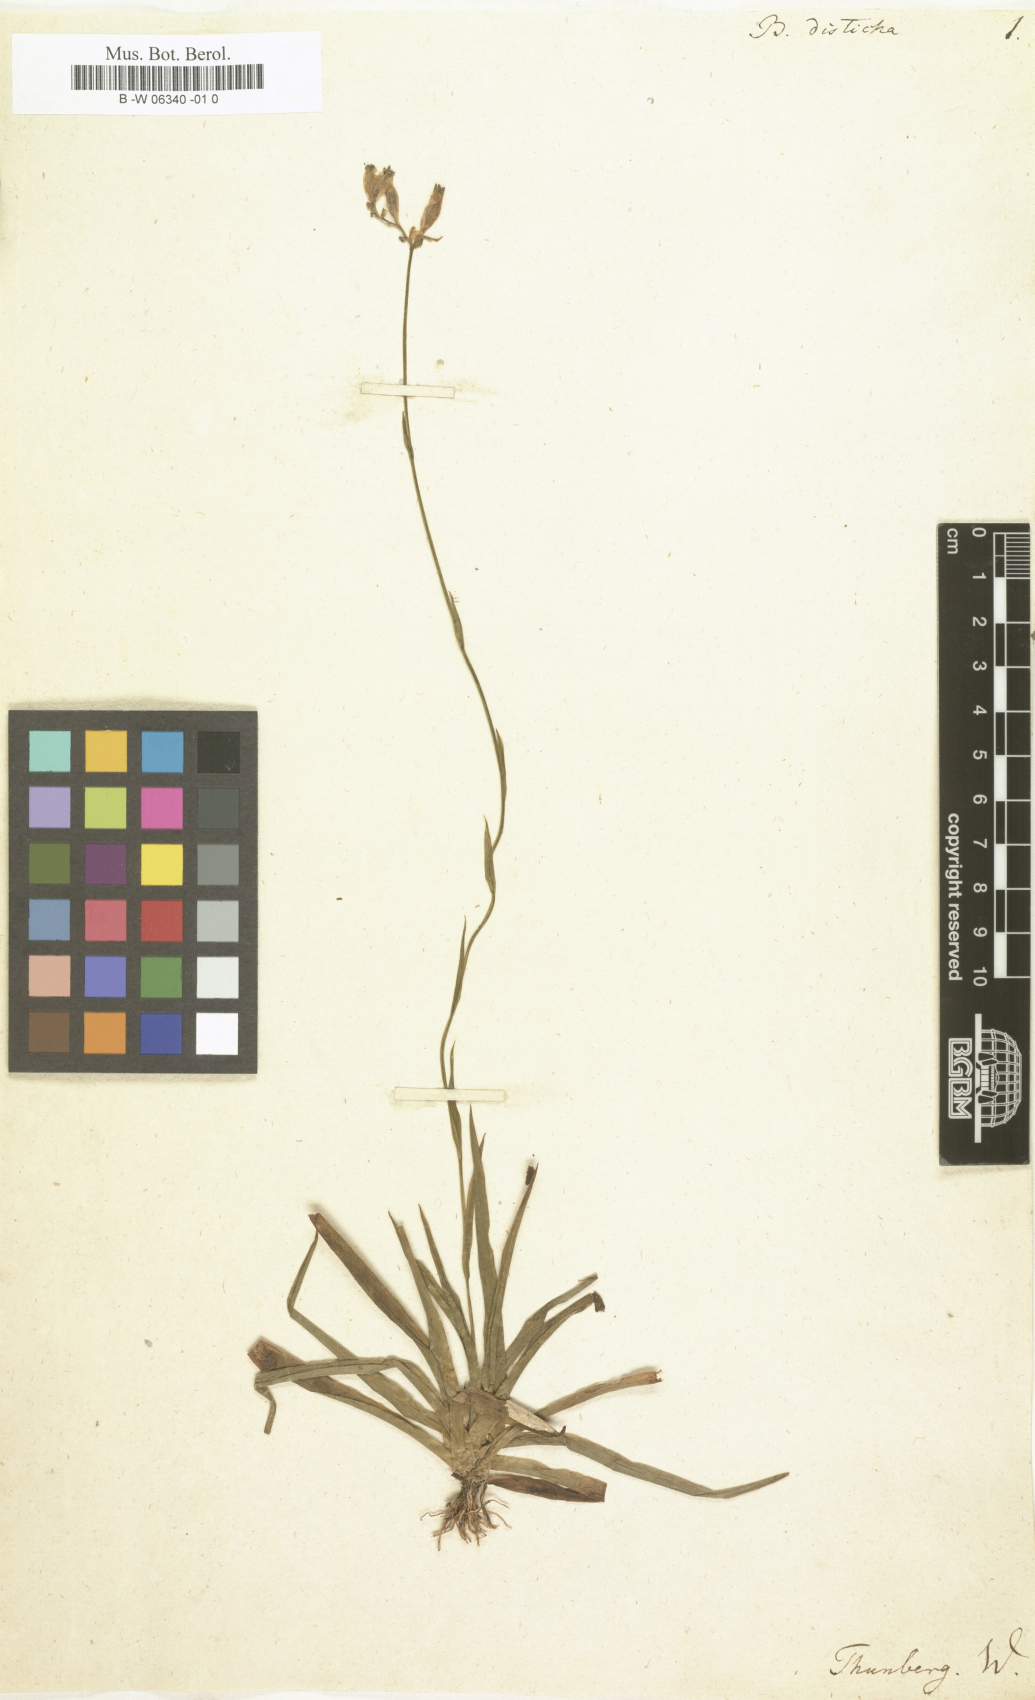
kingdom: Plantae
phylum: Tracheophyta
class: Liliopsida
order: Dioscoreales
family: Burmanniaceae
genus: Burmannia
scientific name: Burmannia disticha
